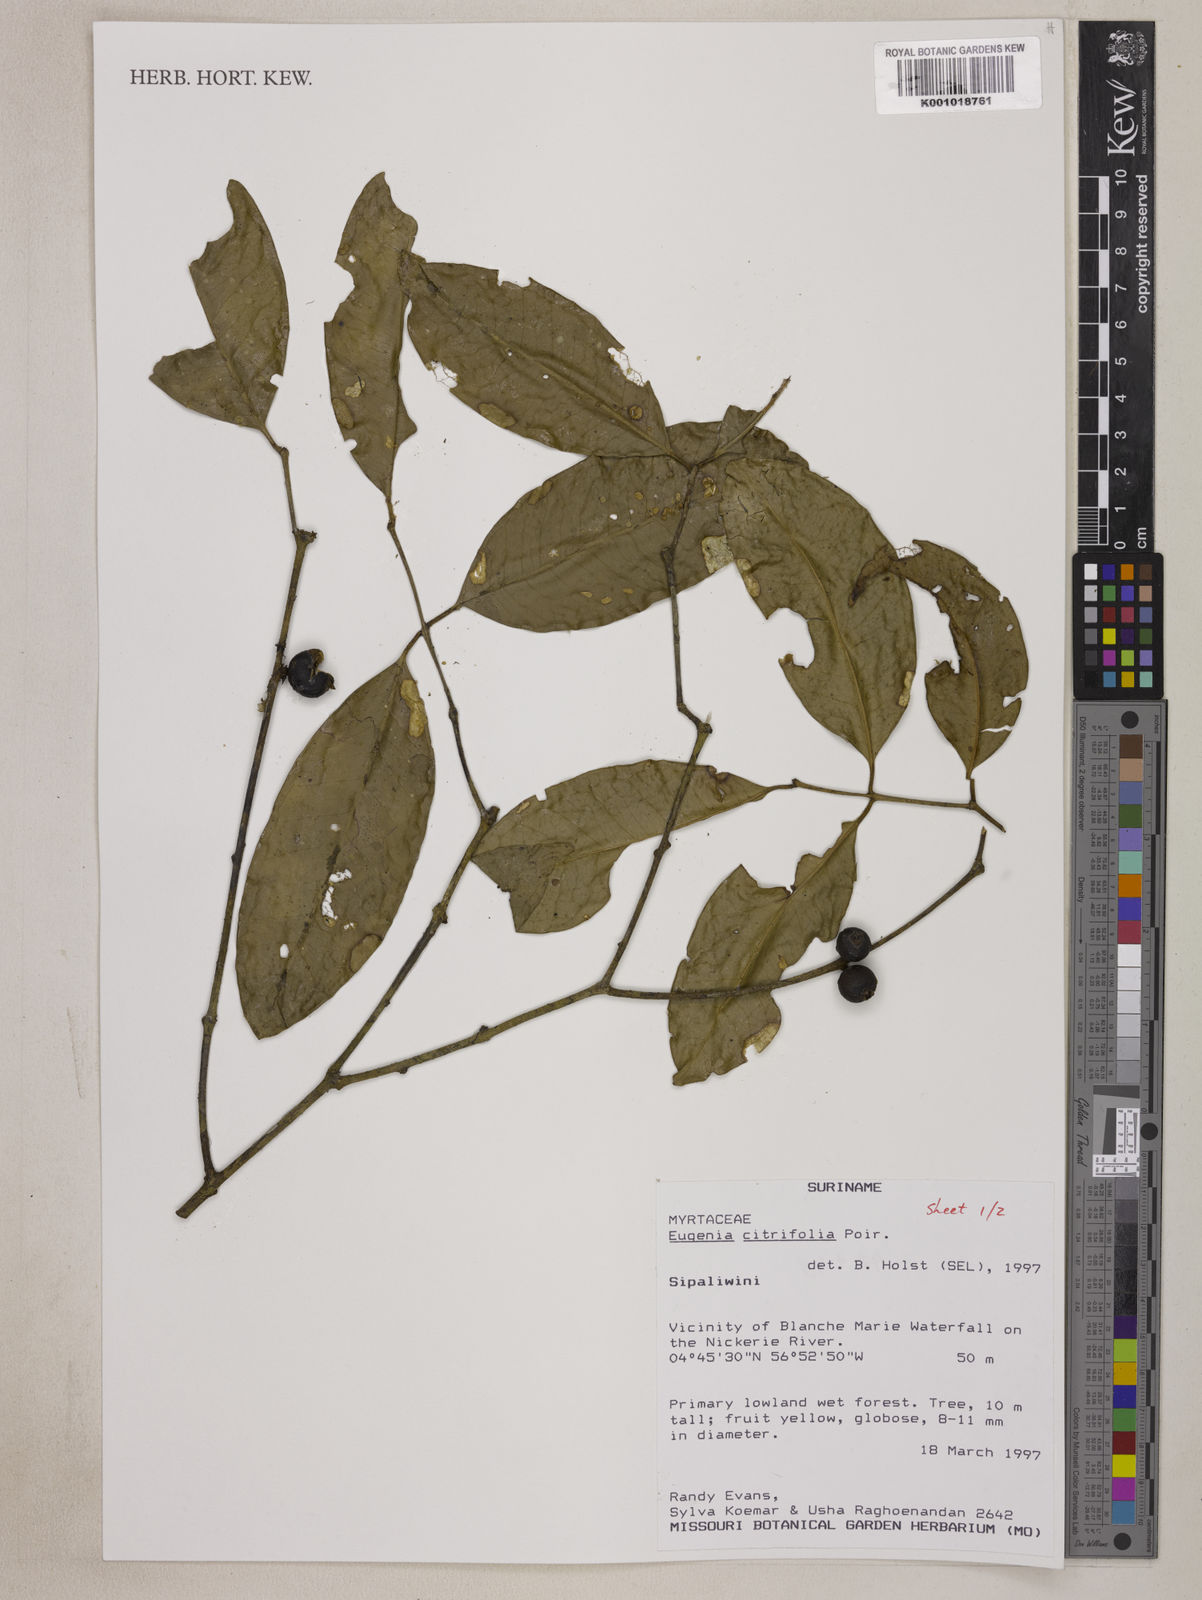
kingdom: Plantae
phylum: Tracheophyta
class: Magnoliopsida
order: Myrtales
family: Myrtaceae
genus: Eugenia
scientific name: Eugenia citrifolia
